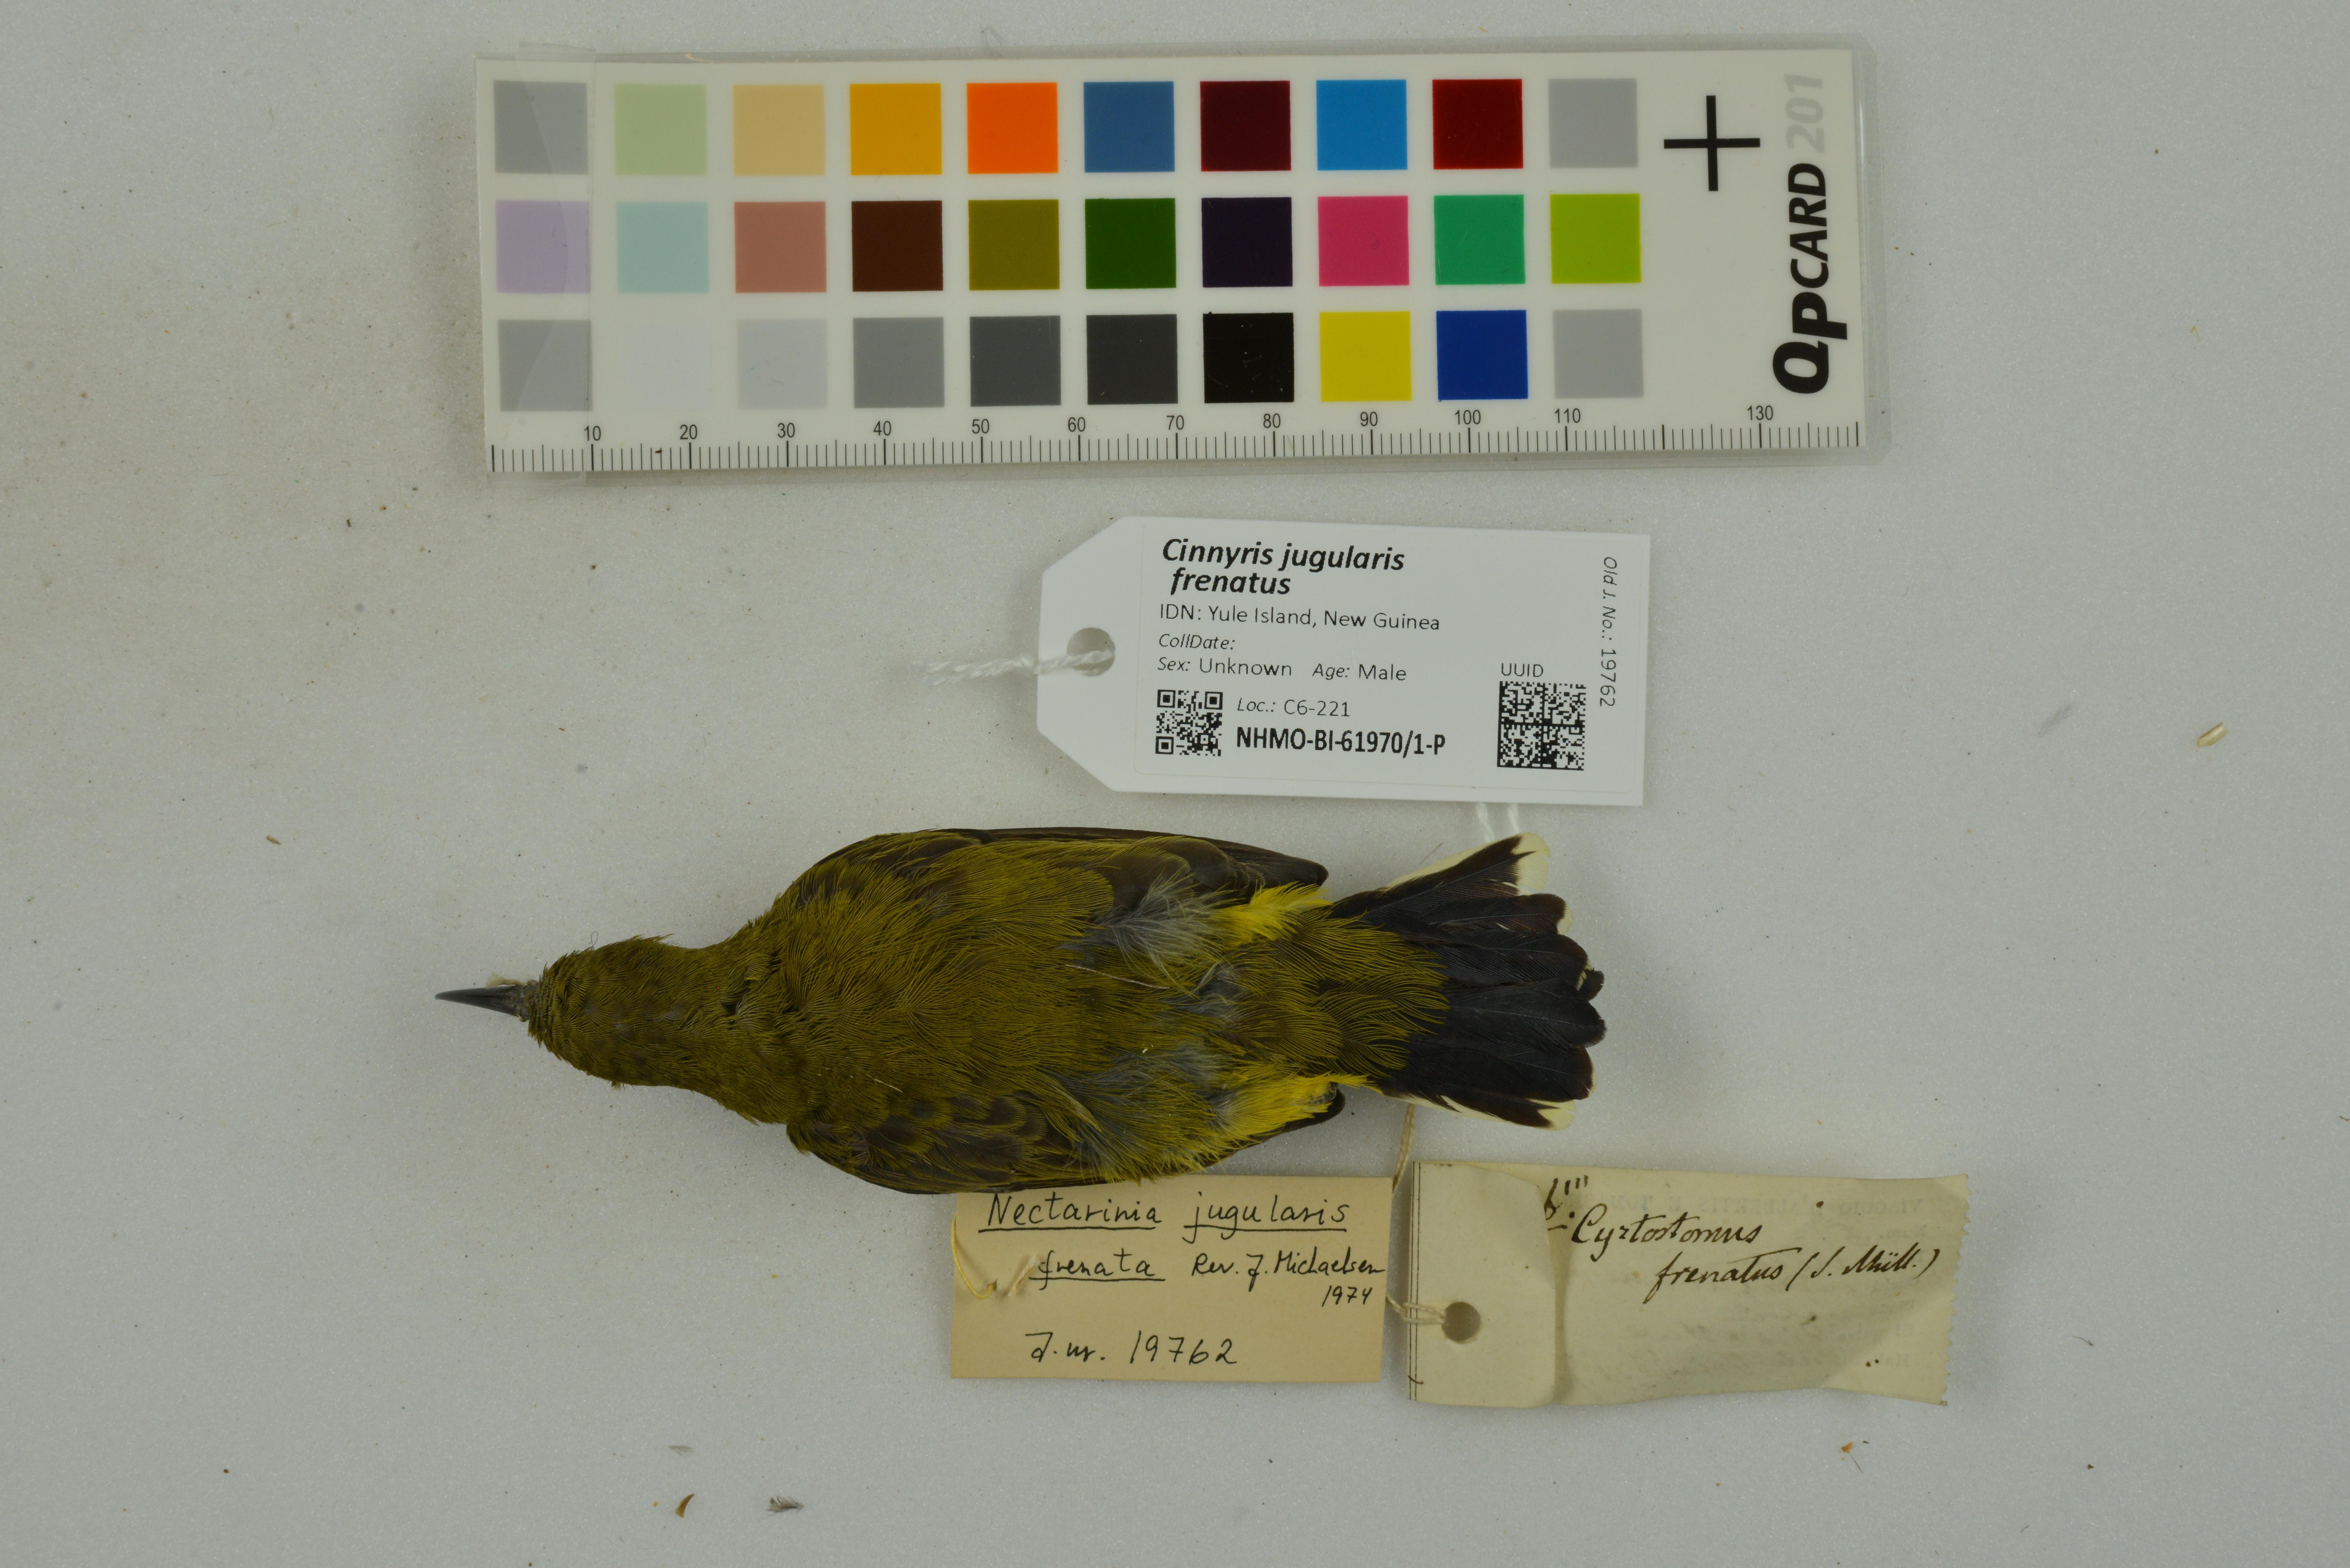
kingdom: Animalia
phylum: Chordata
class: Aves
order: Passeriformes
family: Nectariniidae
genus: Cinnyris
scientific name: Cinnyris jugularis
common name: Olive-backed sunbird
